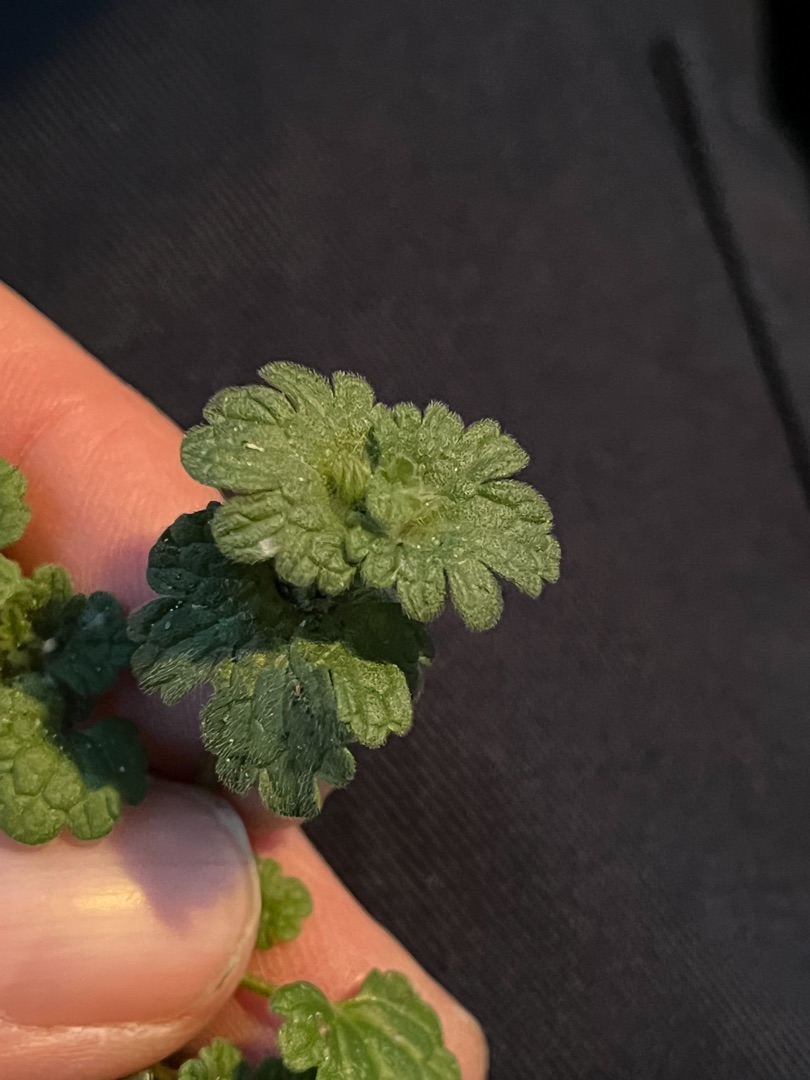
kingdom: Plantae
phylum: Tracheophyta
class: Magnoliopsida
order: Lamiales
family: Lamiaceae
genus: Lamium
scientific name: Lamium amplexicaule
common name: Liden tvetand
